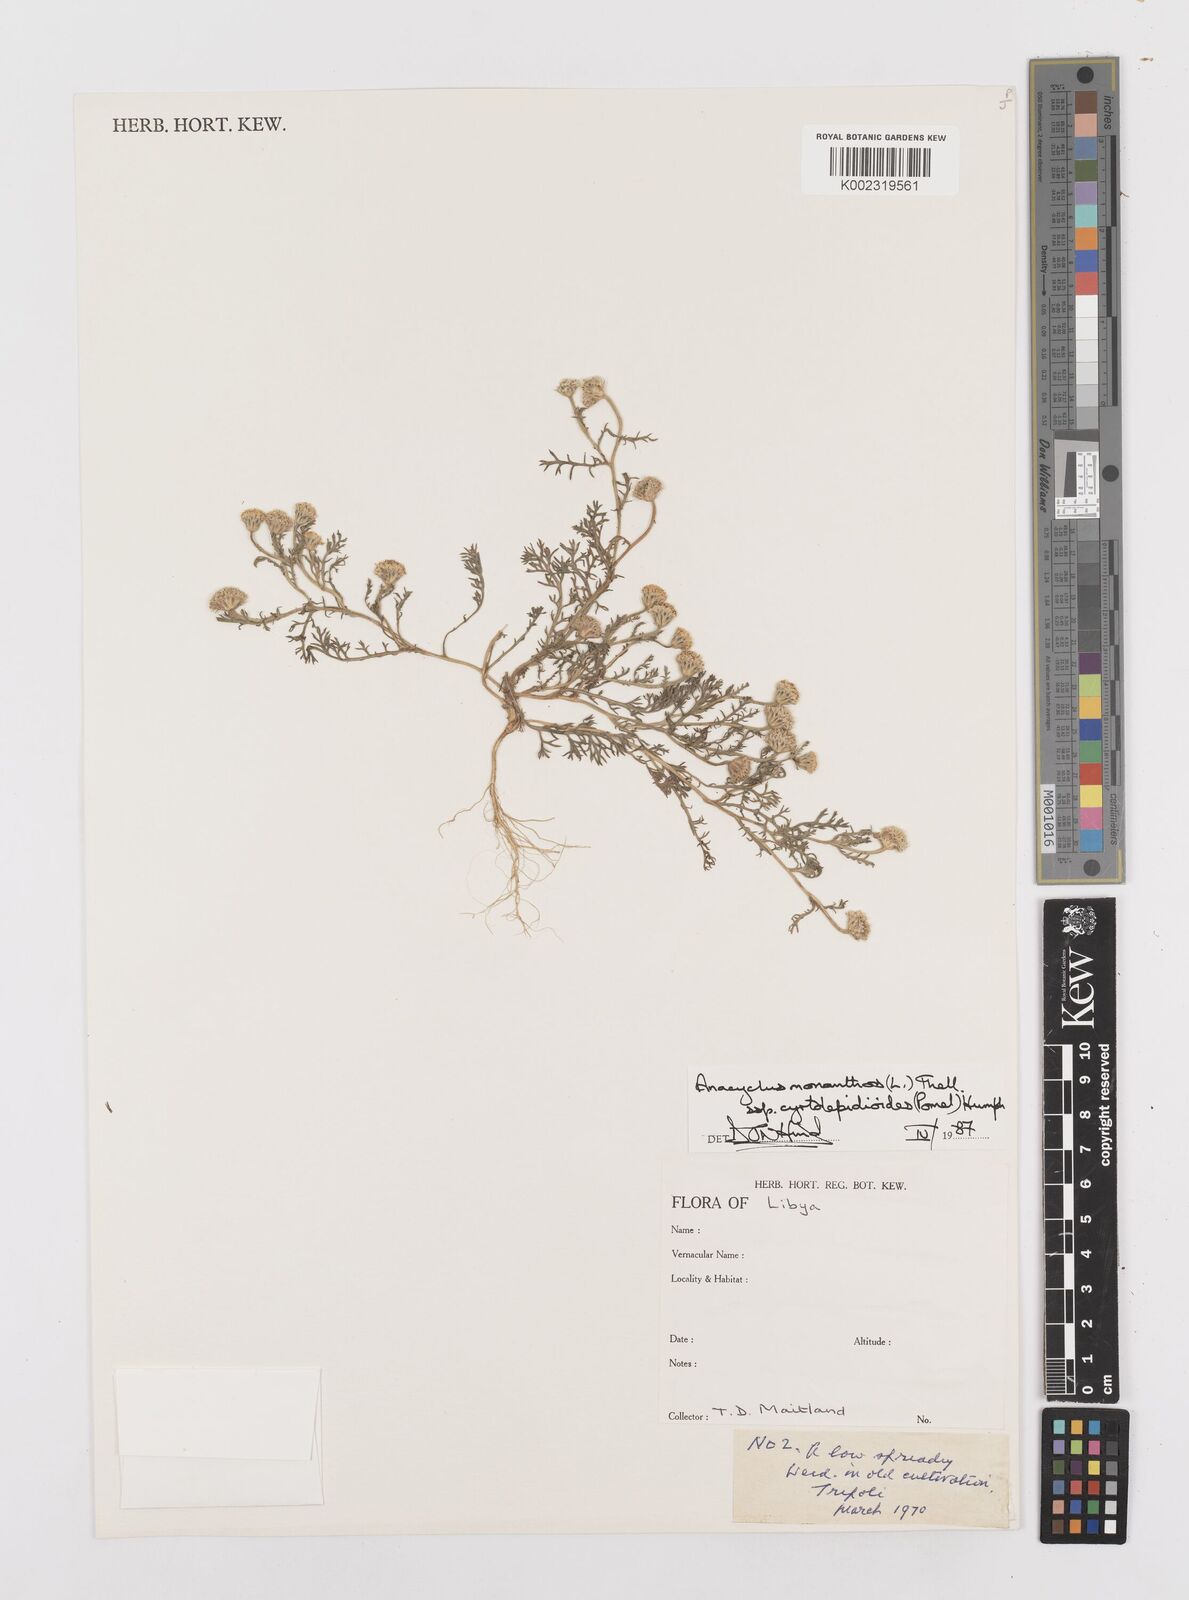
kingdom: Plantae
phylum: Tracheophyta
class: Magnoliopsida
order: Asterales
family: Asteraceae
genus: Anacyclus
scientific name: Anacyclus monanthos
